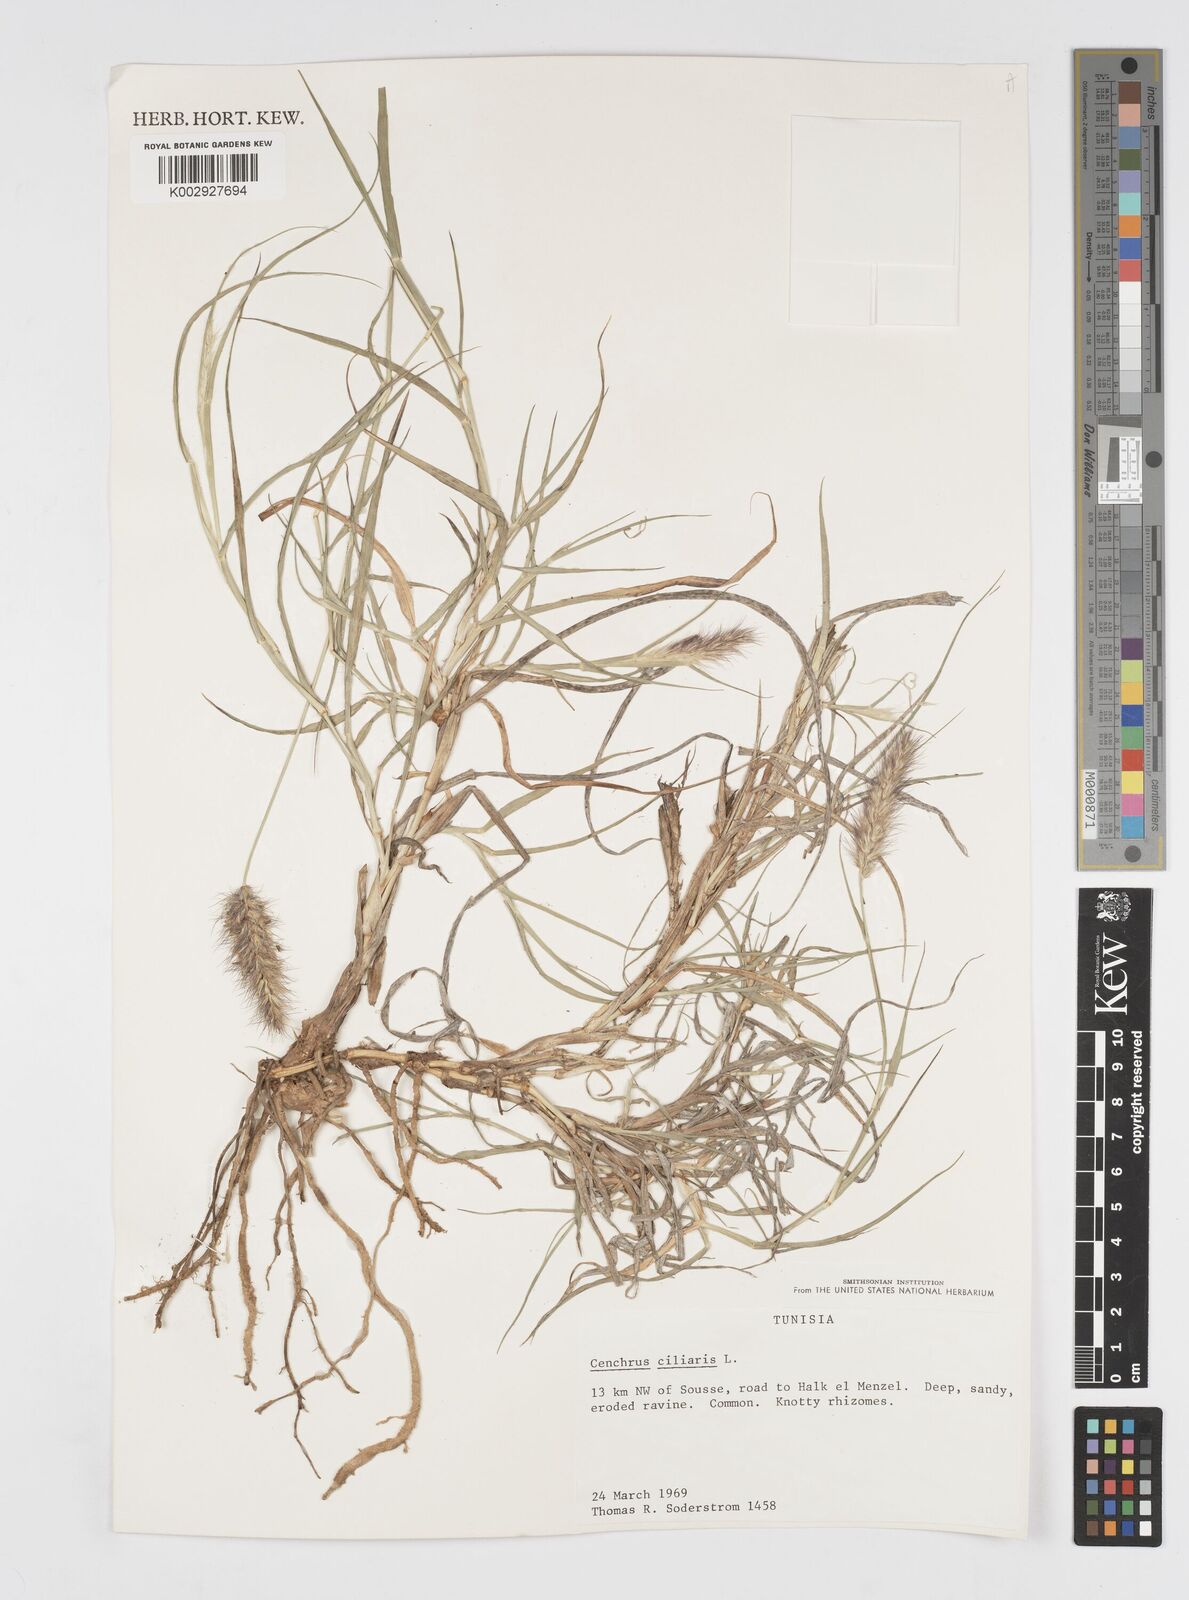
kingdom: Plantae
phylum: Tracheophyta
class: Liliopsida
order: Poales
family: Poaceae
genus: Cenchrus
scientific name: Cenchrus ciliaris
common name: Buffelgrass
